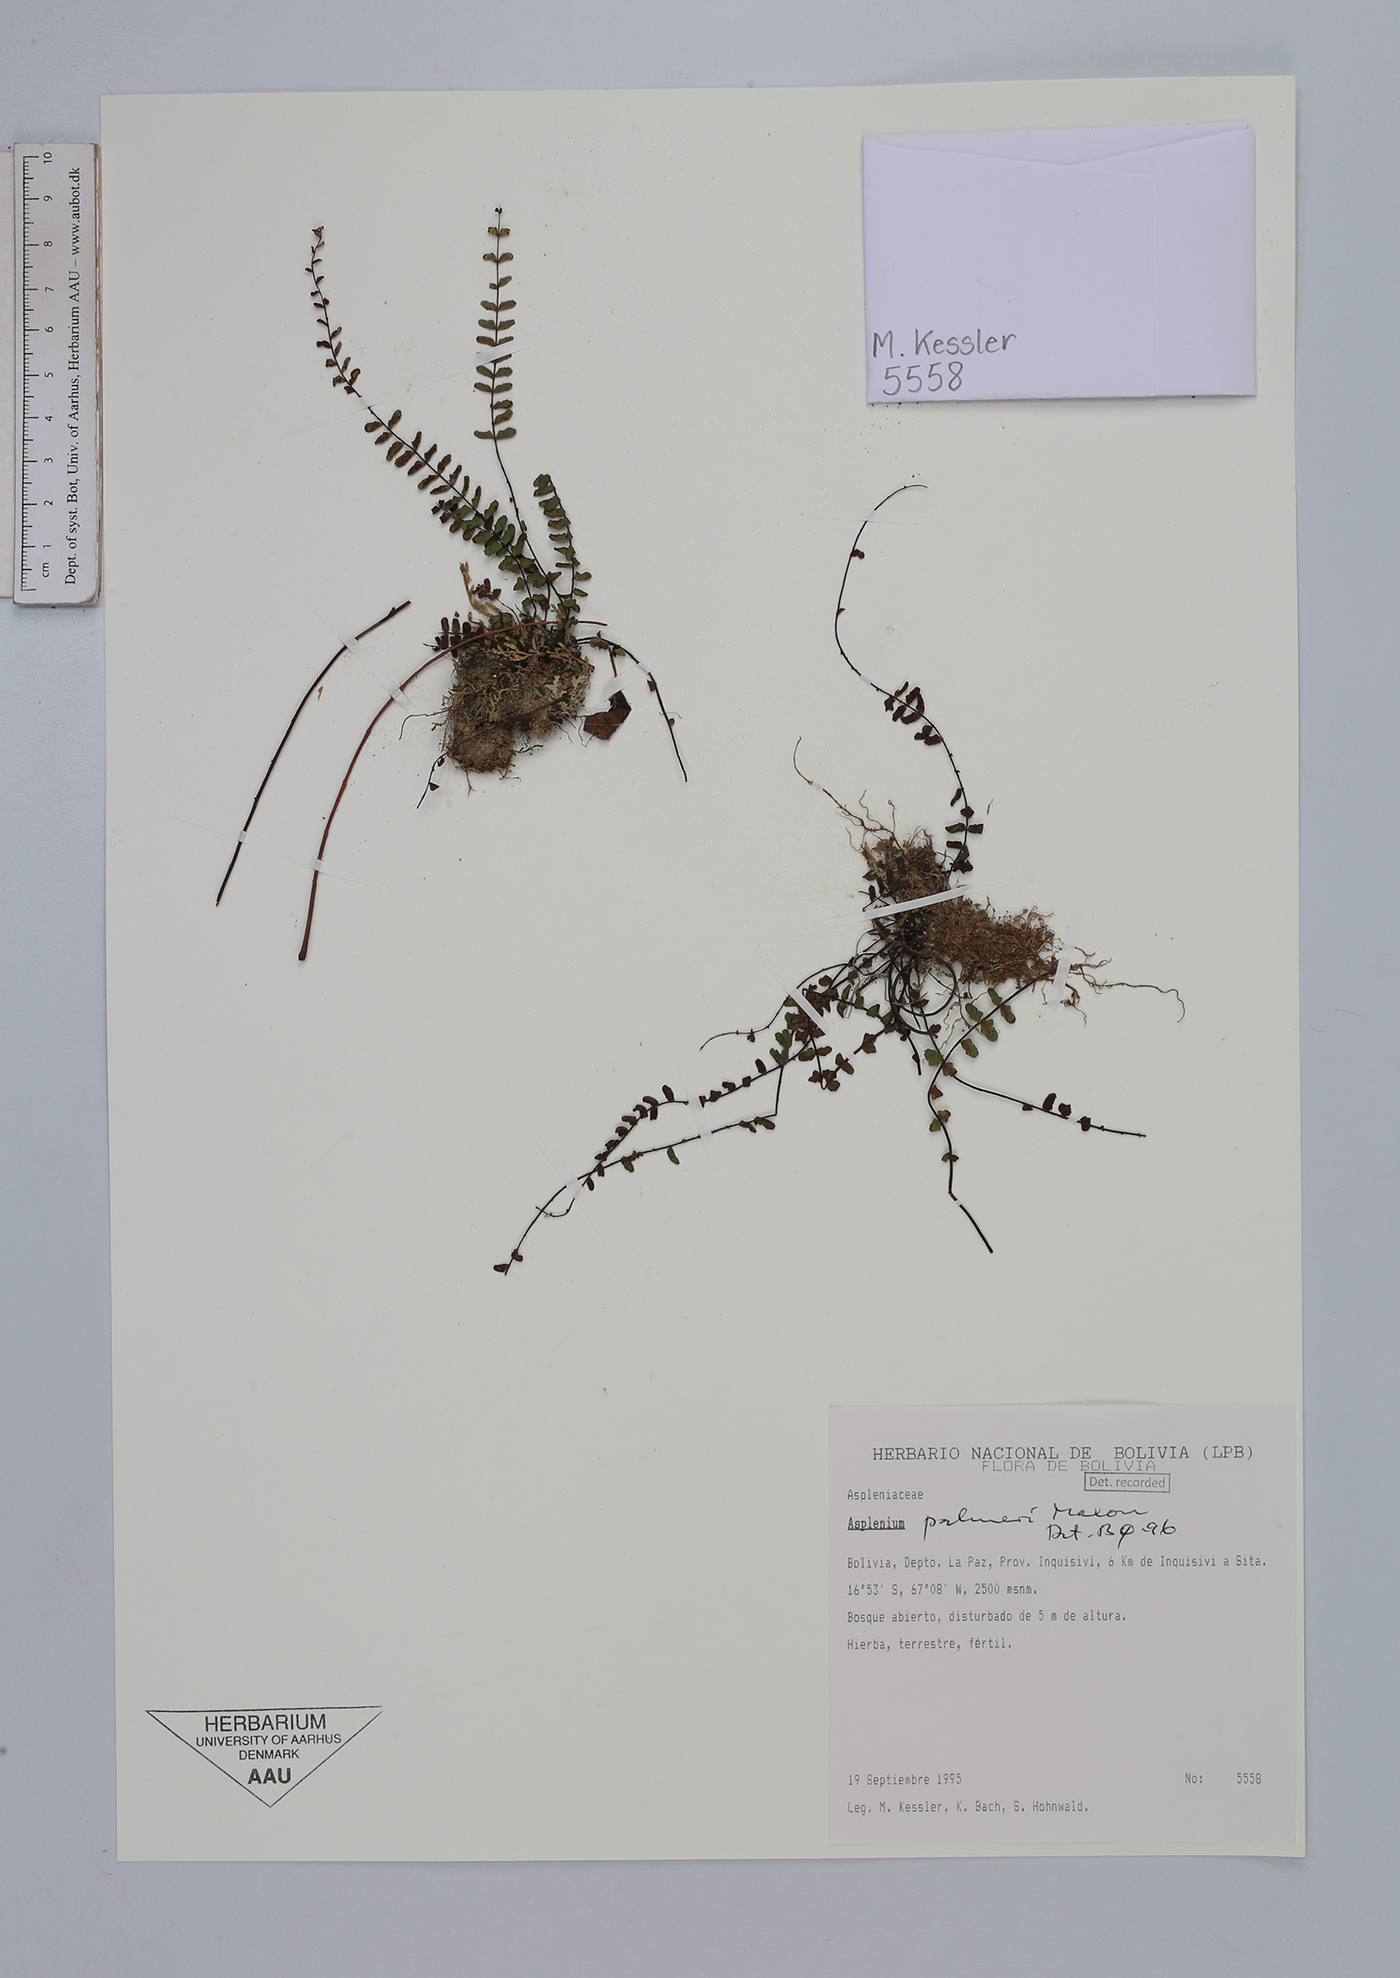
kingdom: Plantae
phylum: Tracheophyta
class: Polypodiopsida
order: Polypodiales
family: Aspleniaceae
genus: Asplenium
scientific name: Asplenium palmeri
